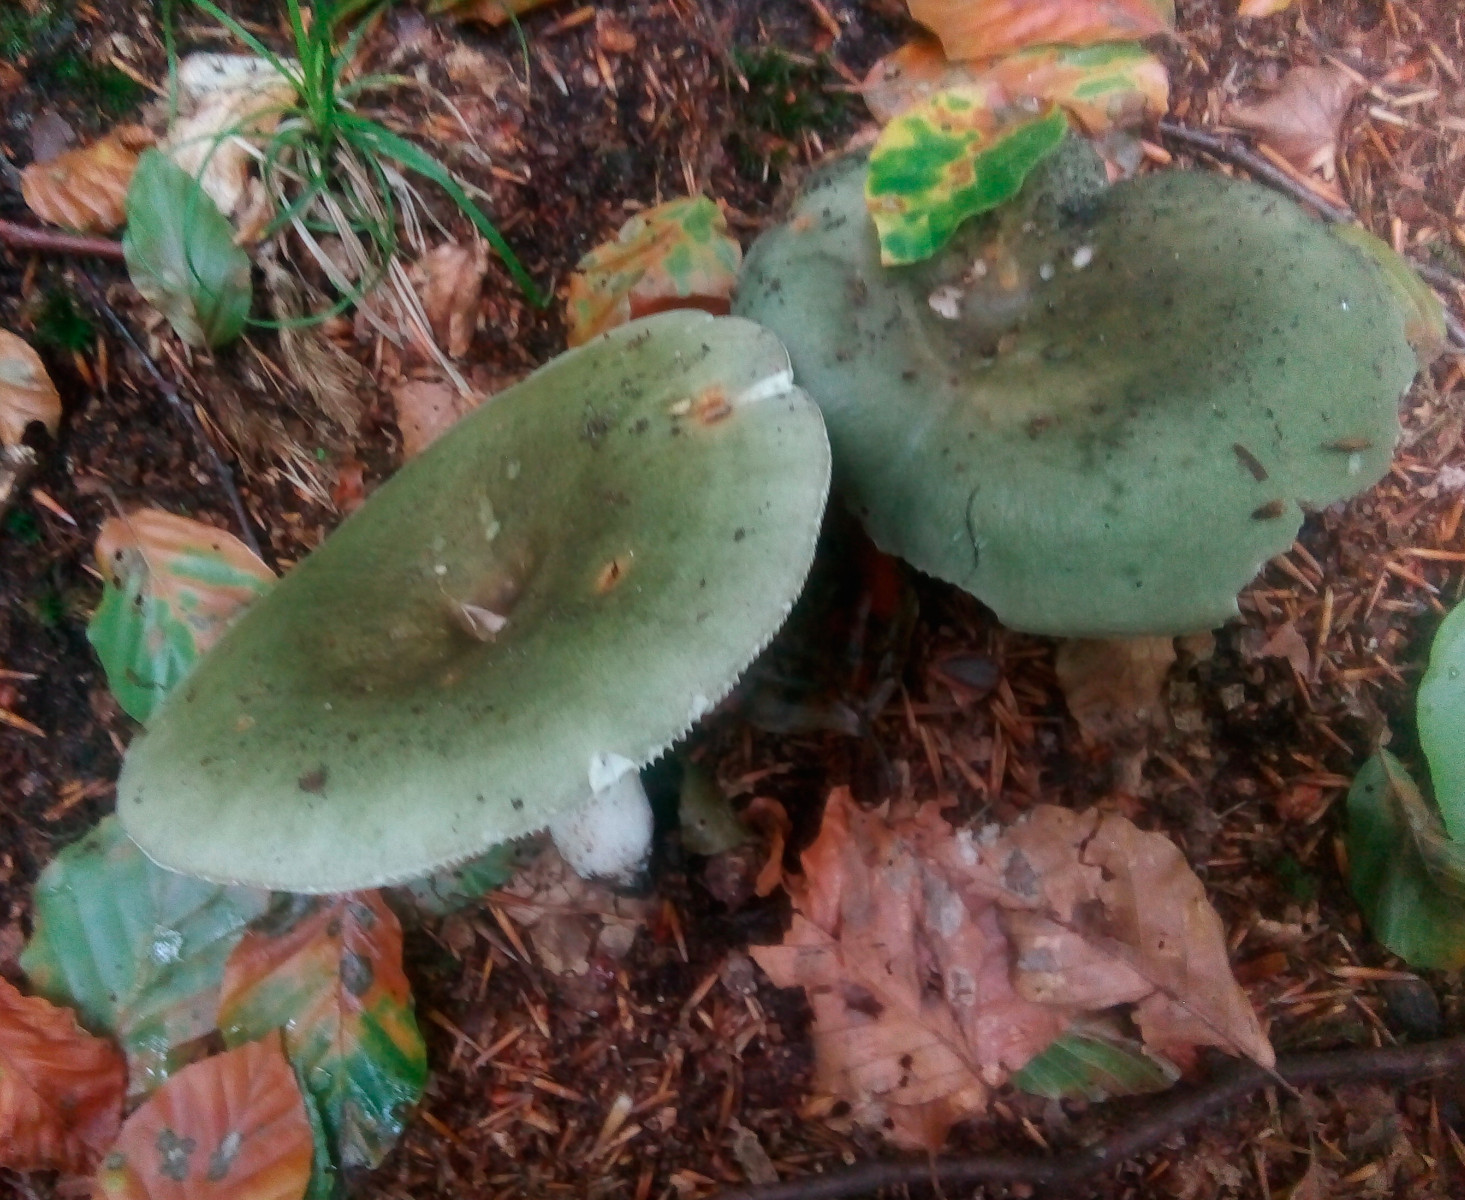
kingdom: Fungi
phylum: Basidiomycota
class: Agaricomycetes
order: Russulales
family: Russulaceae
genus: Russula
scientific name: Russula heterophylla
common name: gaffelbladet skørhat
